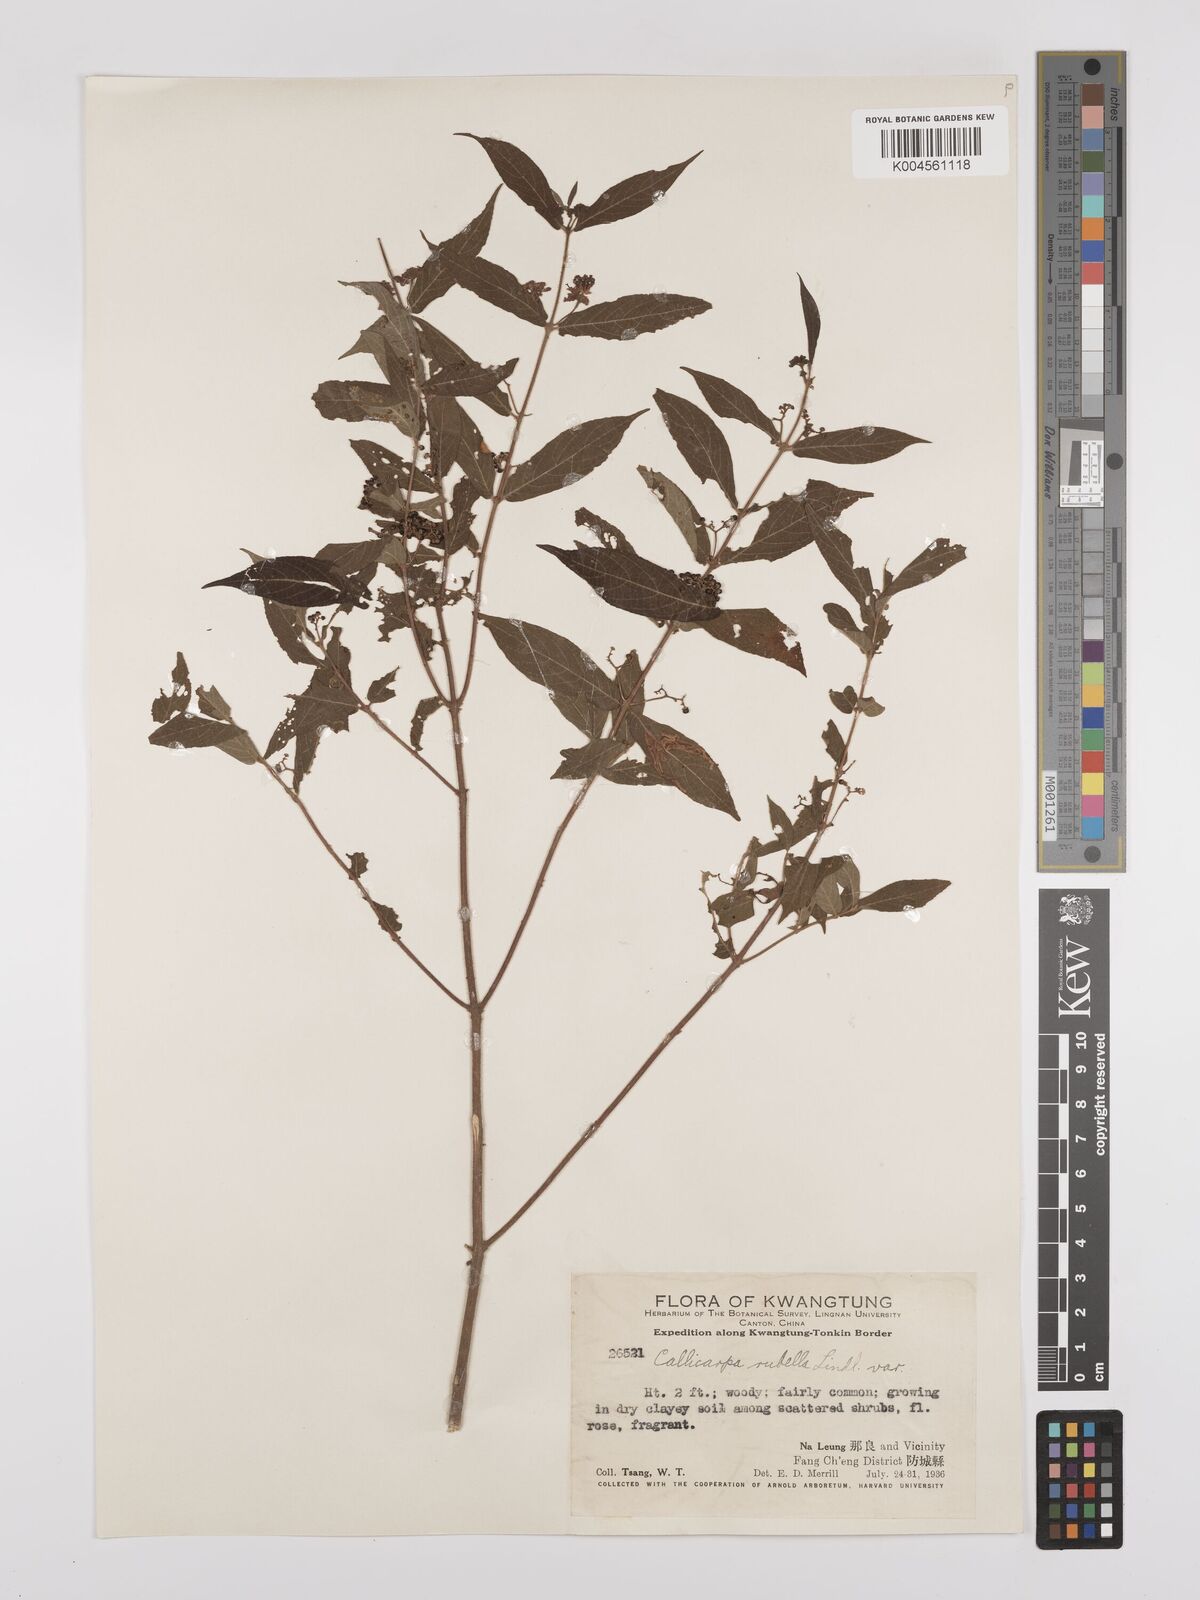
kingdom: Plantae
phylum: Tracheophyta
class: Magnoliopsida
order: Lamiales
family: Lamiaceae
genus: Callicarpa
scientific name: Callicarpa rubella
